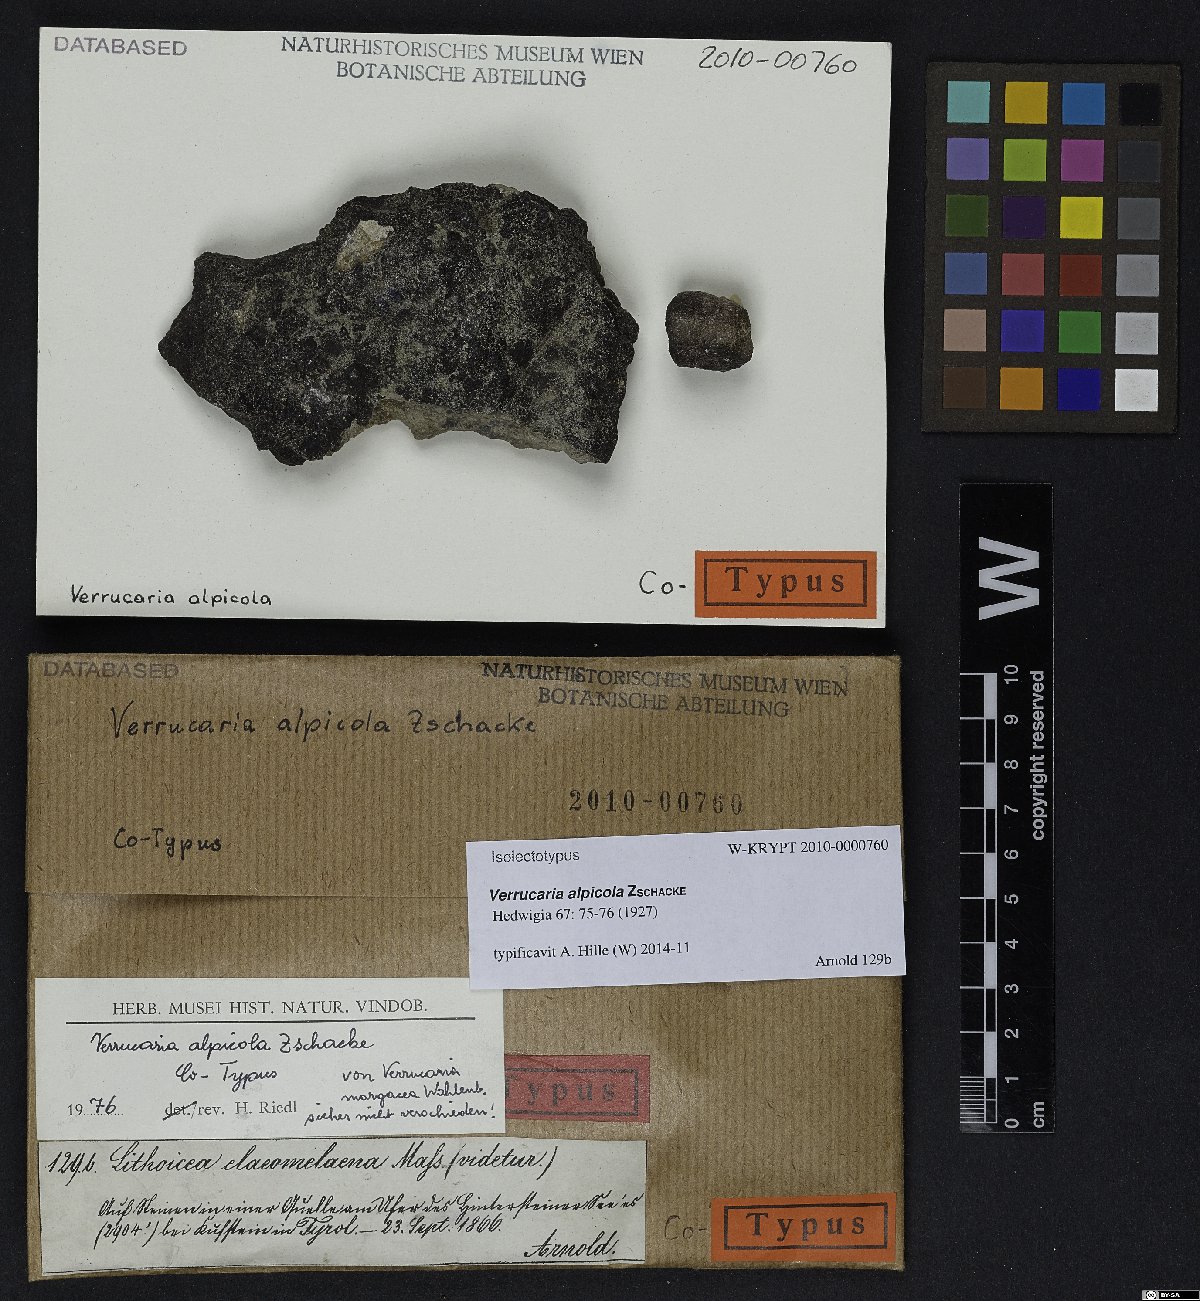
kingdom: Fungi
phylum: Ascomycota
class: Eurotiomycetes
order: Verrucariales
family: Verrucariaceae
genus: Verrucaria
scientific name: Verrucaria alpicola
